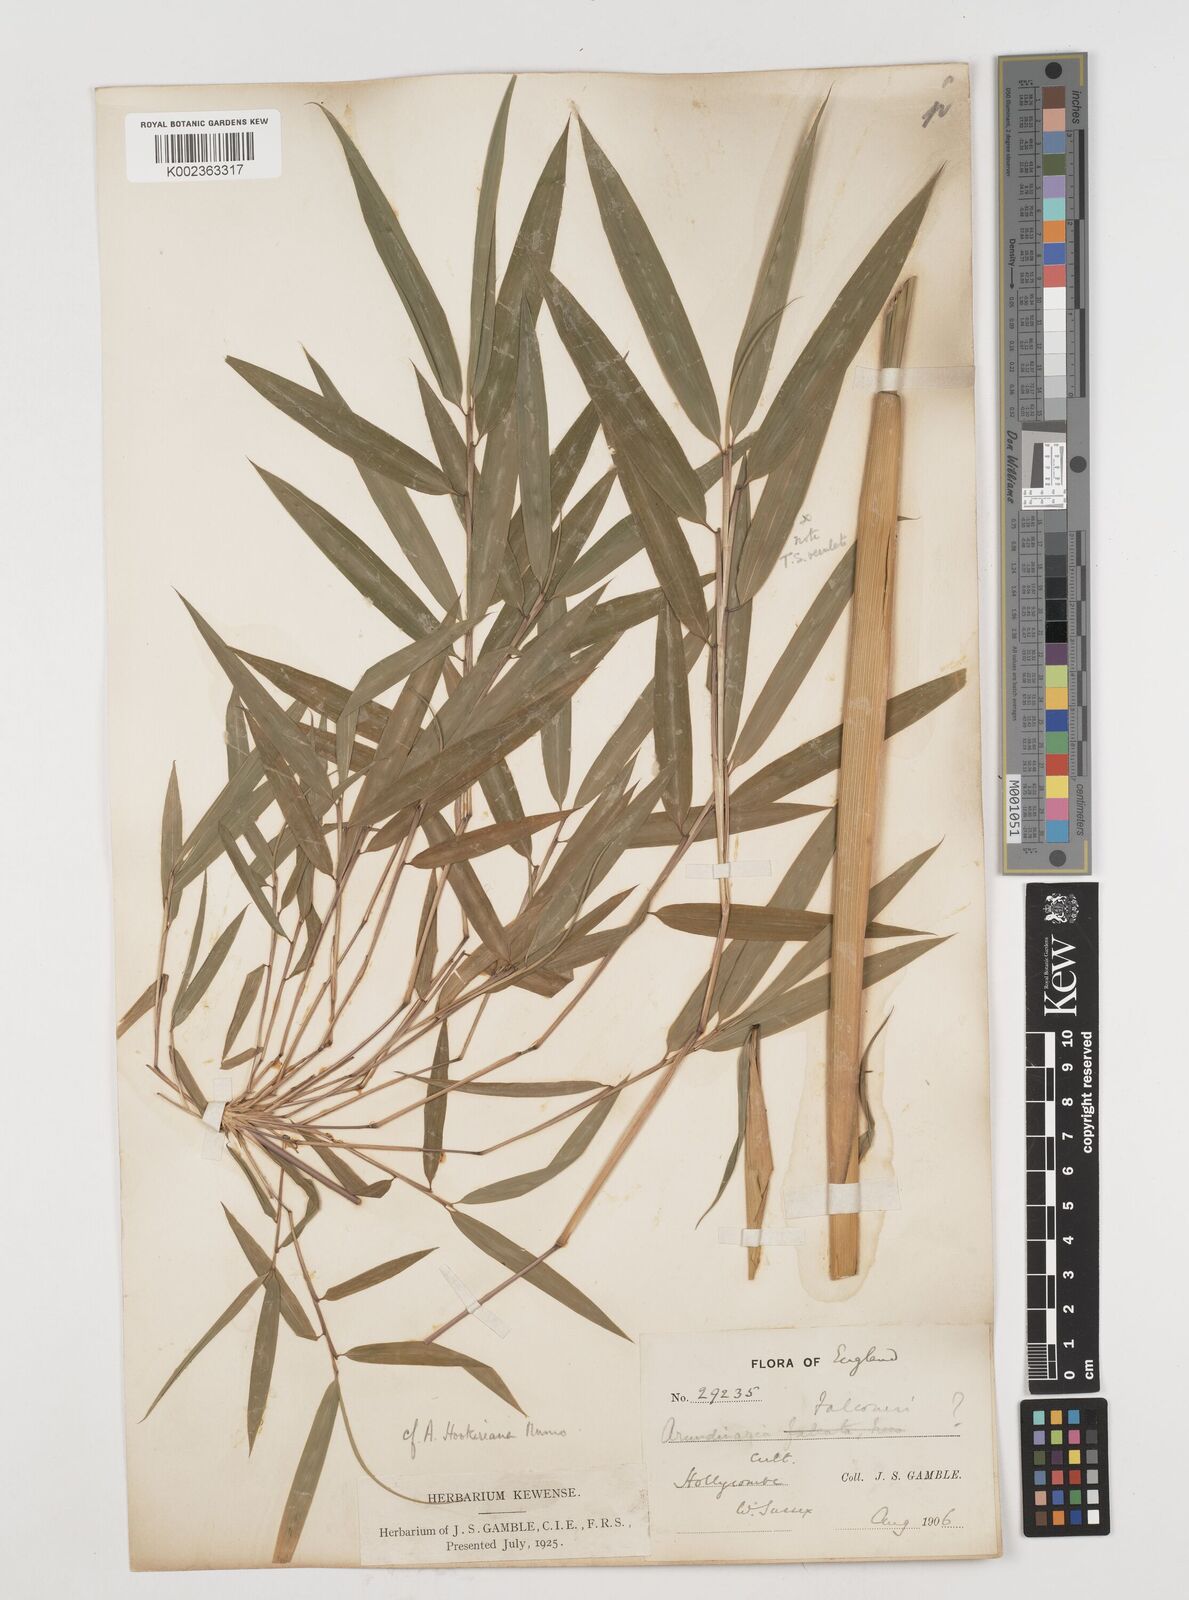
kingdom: Plantae
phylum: Tracheophyta
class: Liliopsida
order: Poales
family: Poaceae
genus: Himalayacalamus
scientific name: Himalayacalamus falconeri
